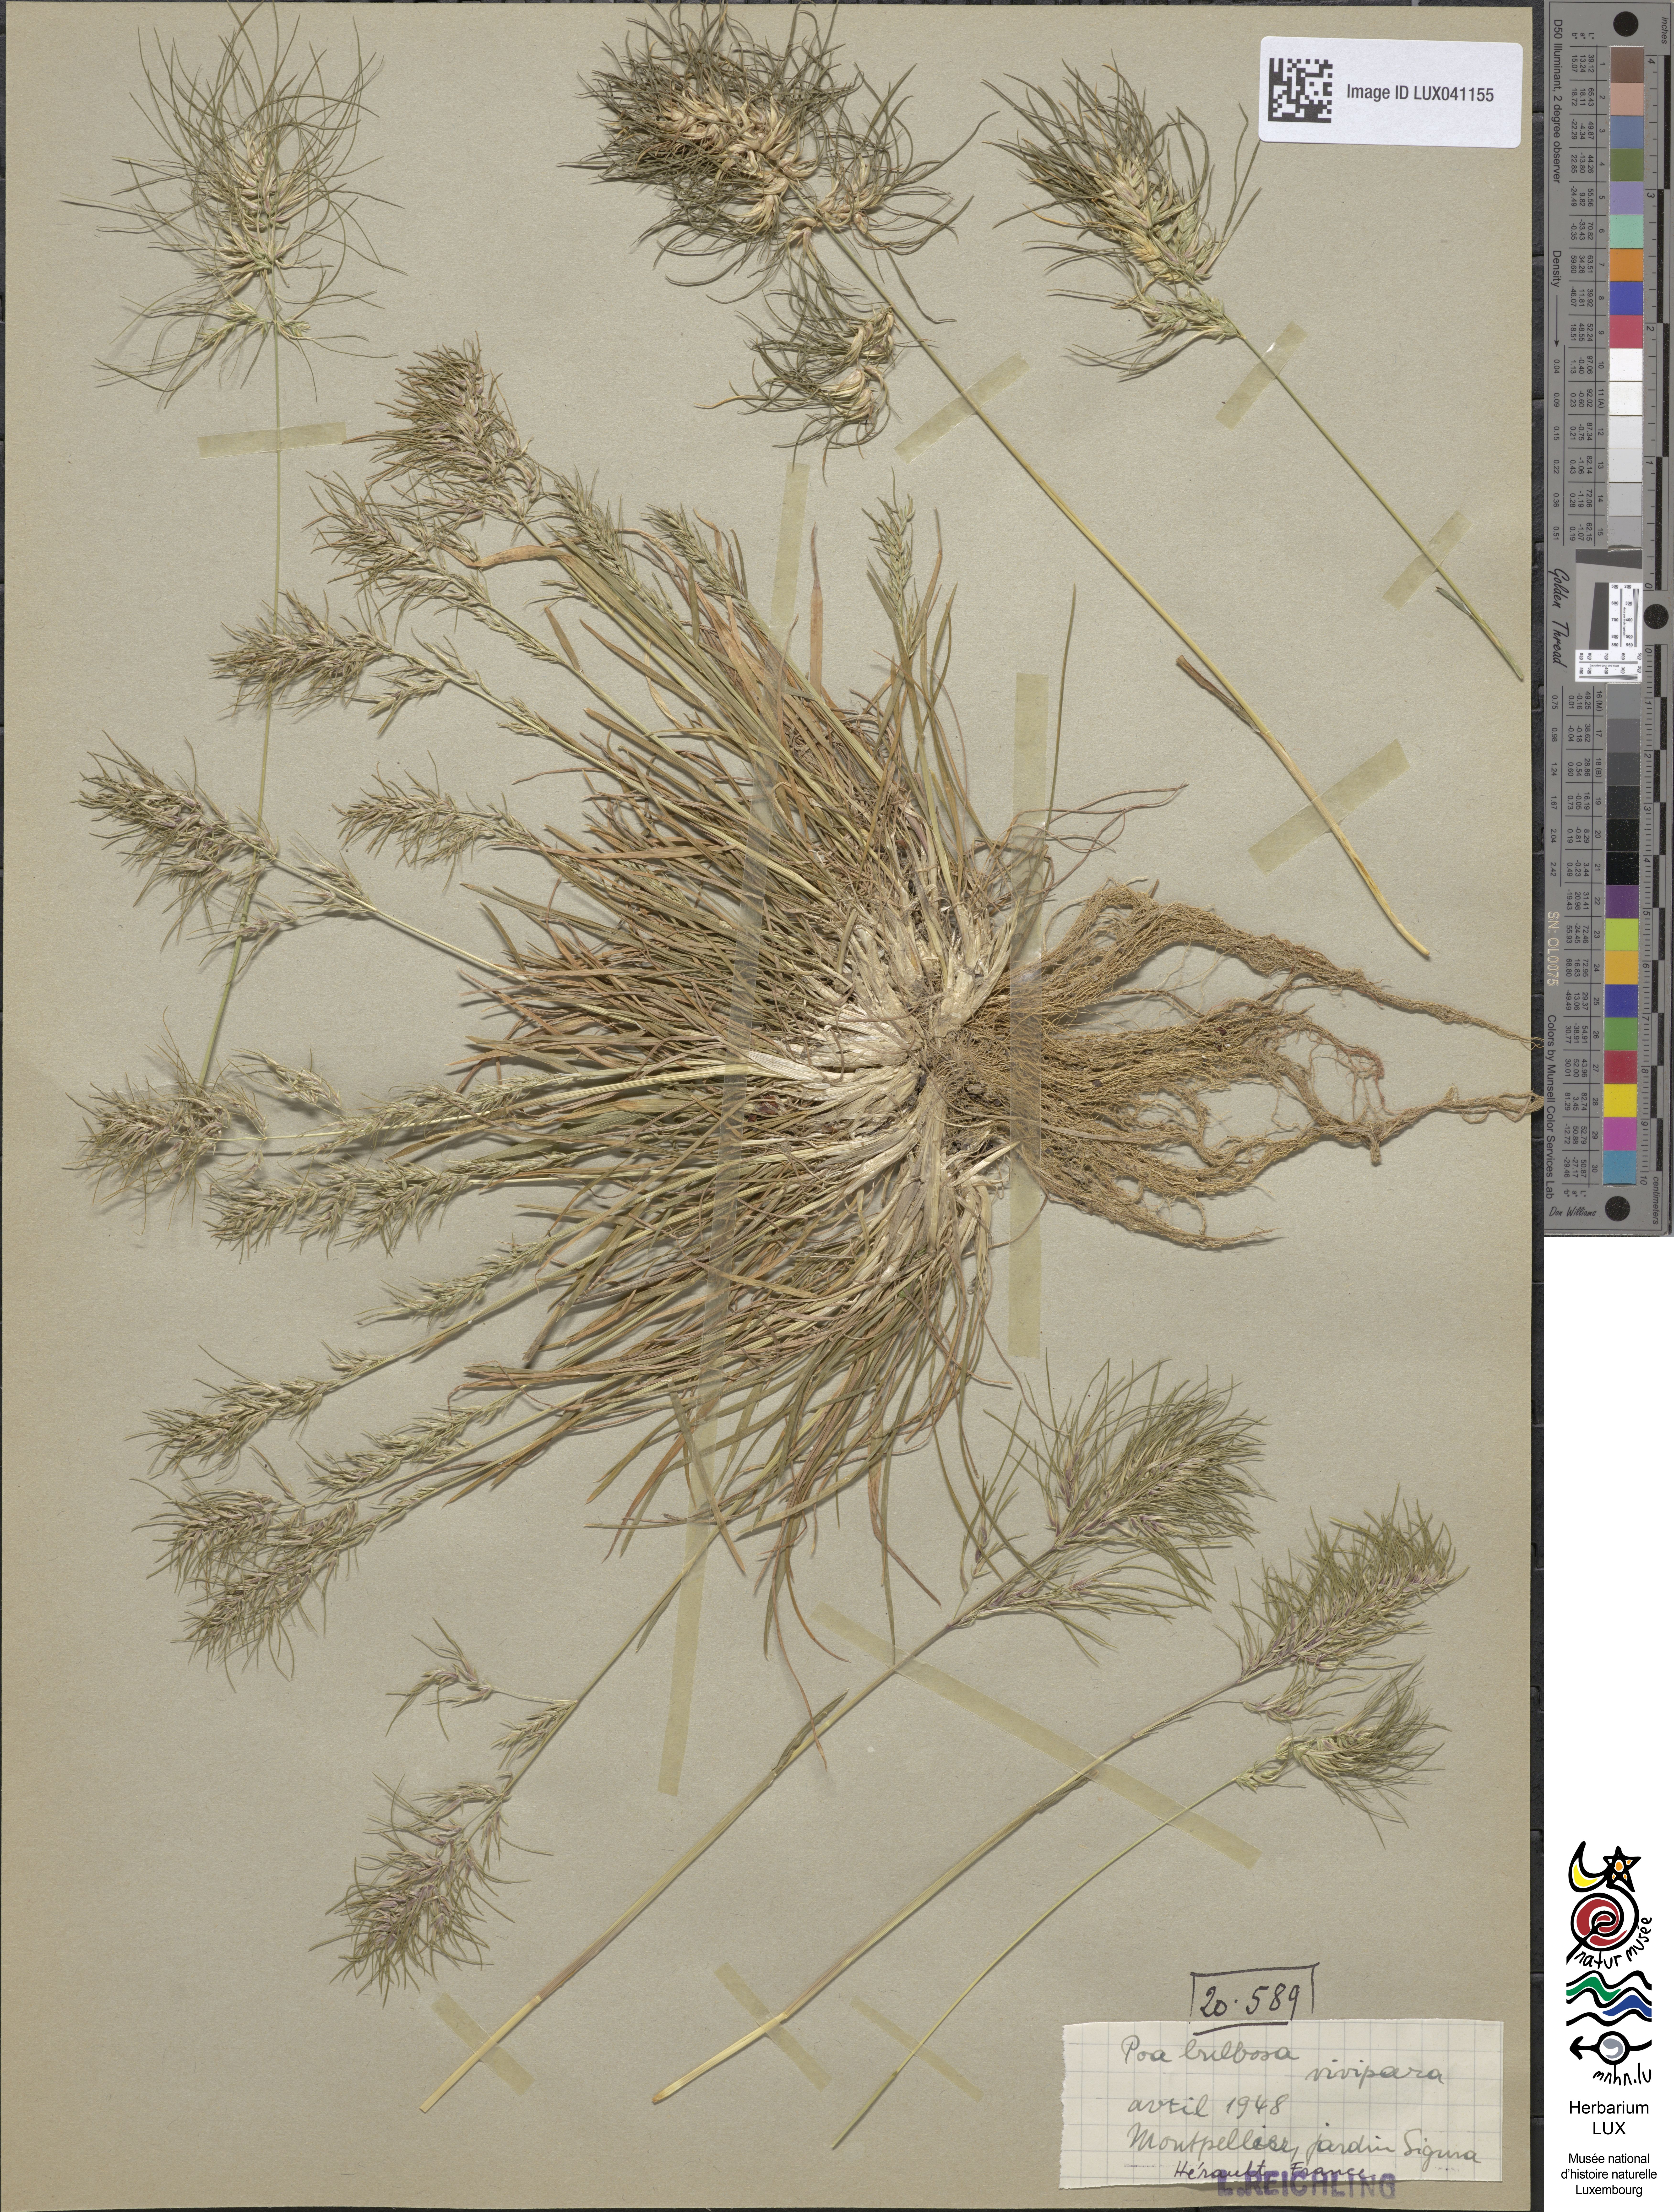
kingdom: Plantae
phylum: Tracheophyta
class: Liliopsida
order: Poales
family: Poaceae
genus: Poa
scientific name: Poa bulbosa
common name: Bulbous bluegrass
